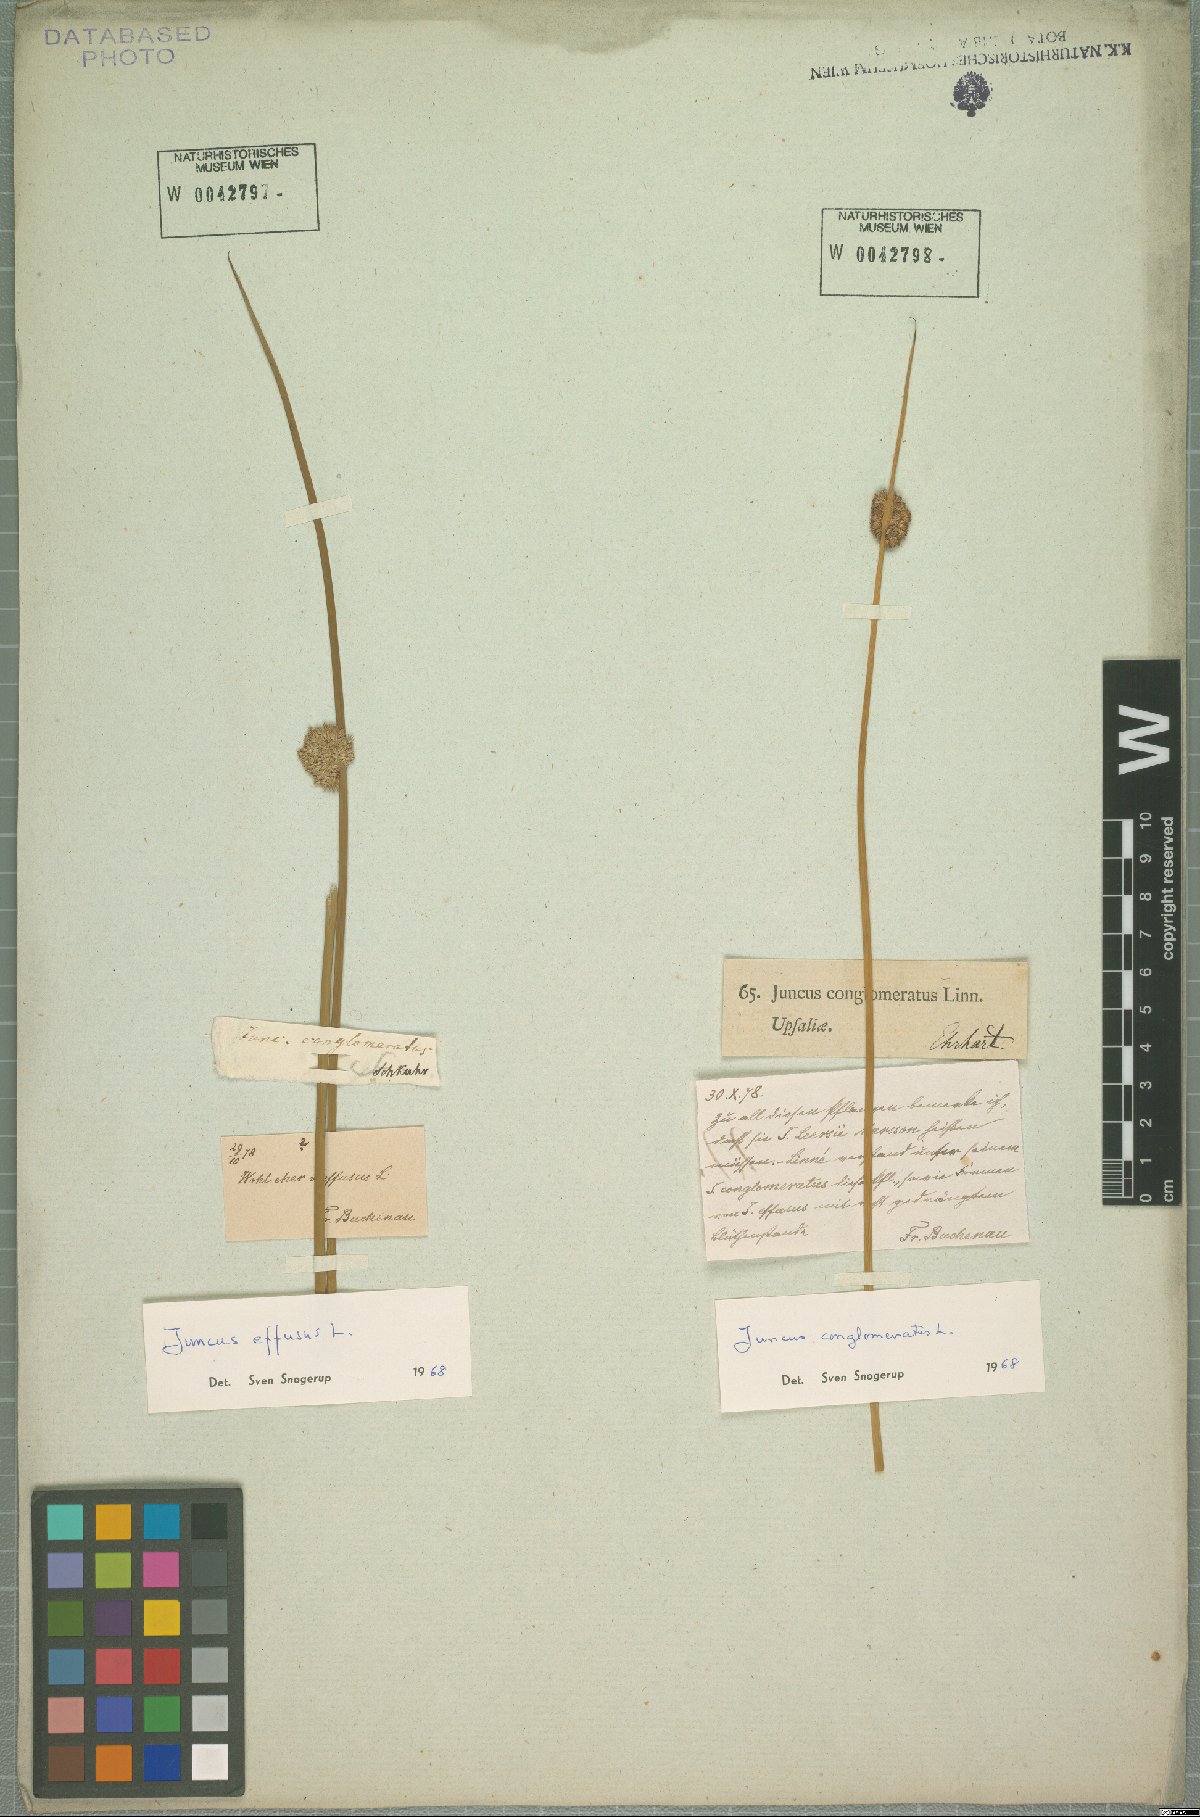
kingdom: Plantae
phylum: Tracheophyta
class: Liliopsida
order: Poales
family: Juncaceae
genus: Juncus
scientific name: Juncus effusus
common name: Soft rush
